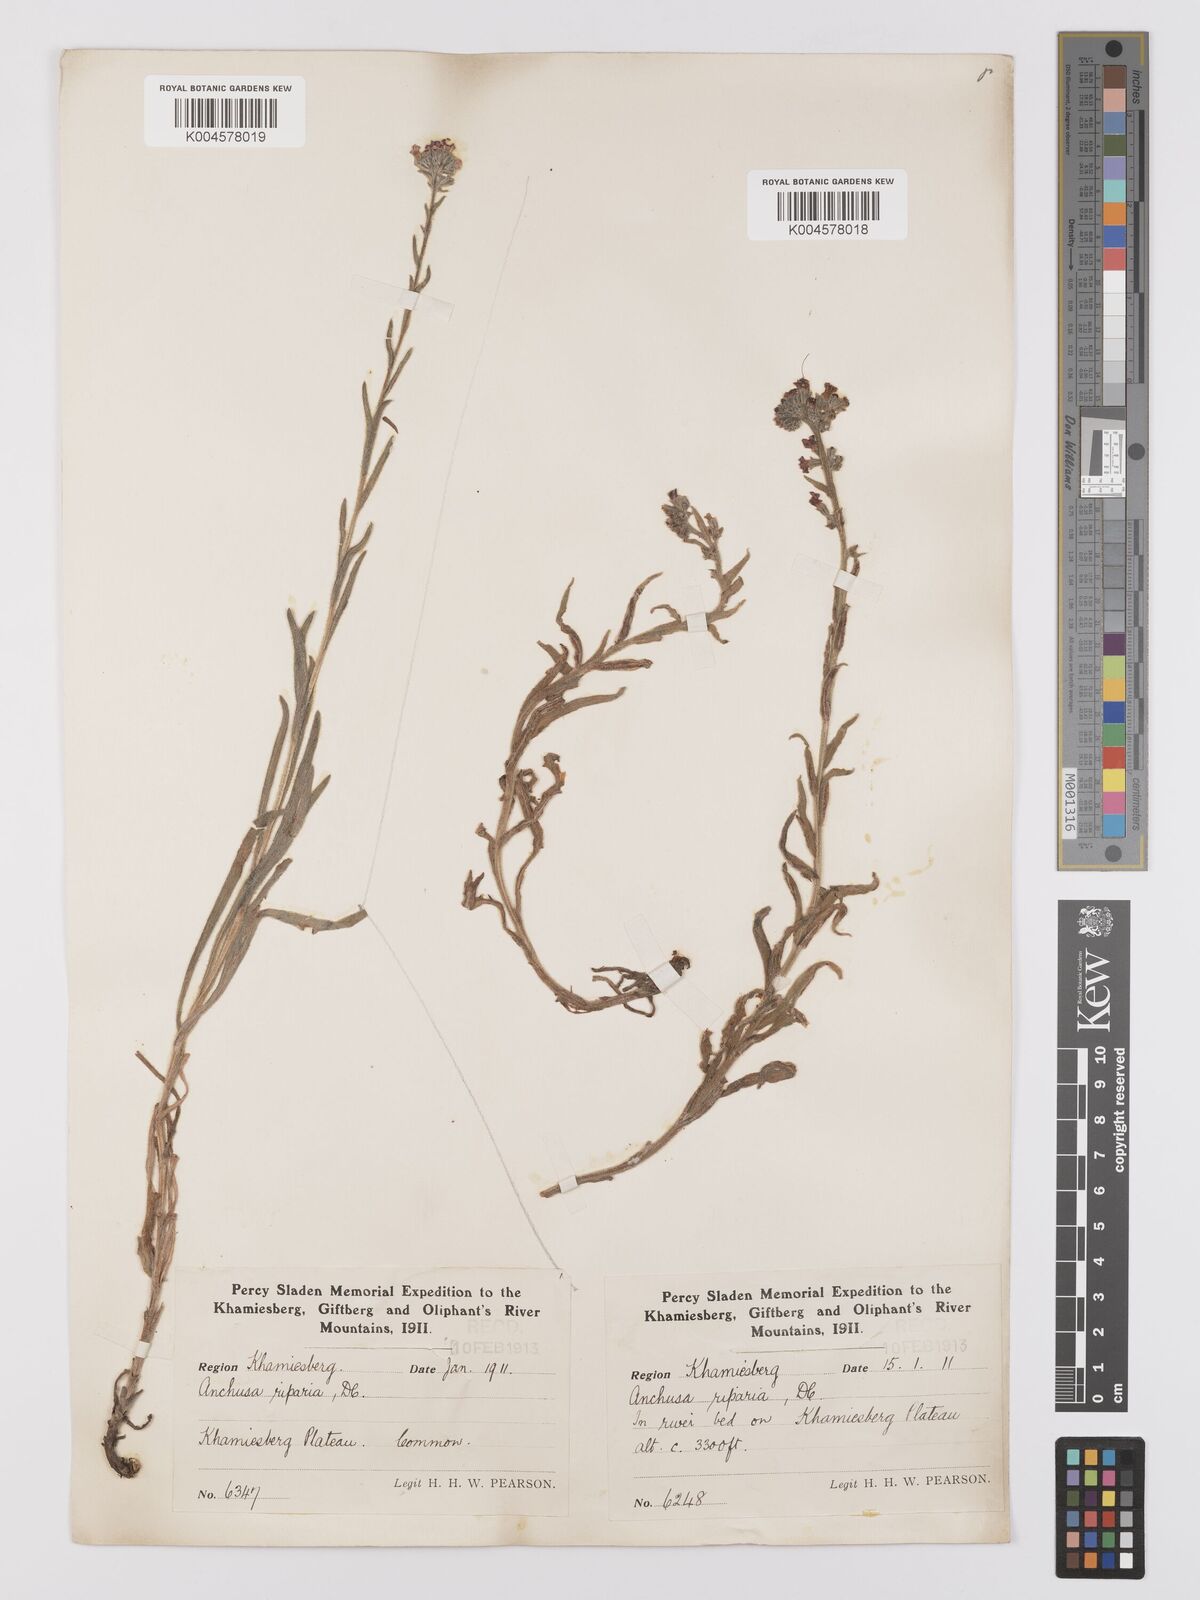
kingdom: Plantae
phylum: Tracheophyta
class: Magnoliopsida
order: Boraginales
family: Boraginaceae
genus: Anchusa
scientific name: Anchusa capensis
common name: Cape bugloss
